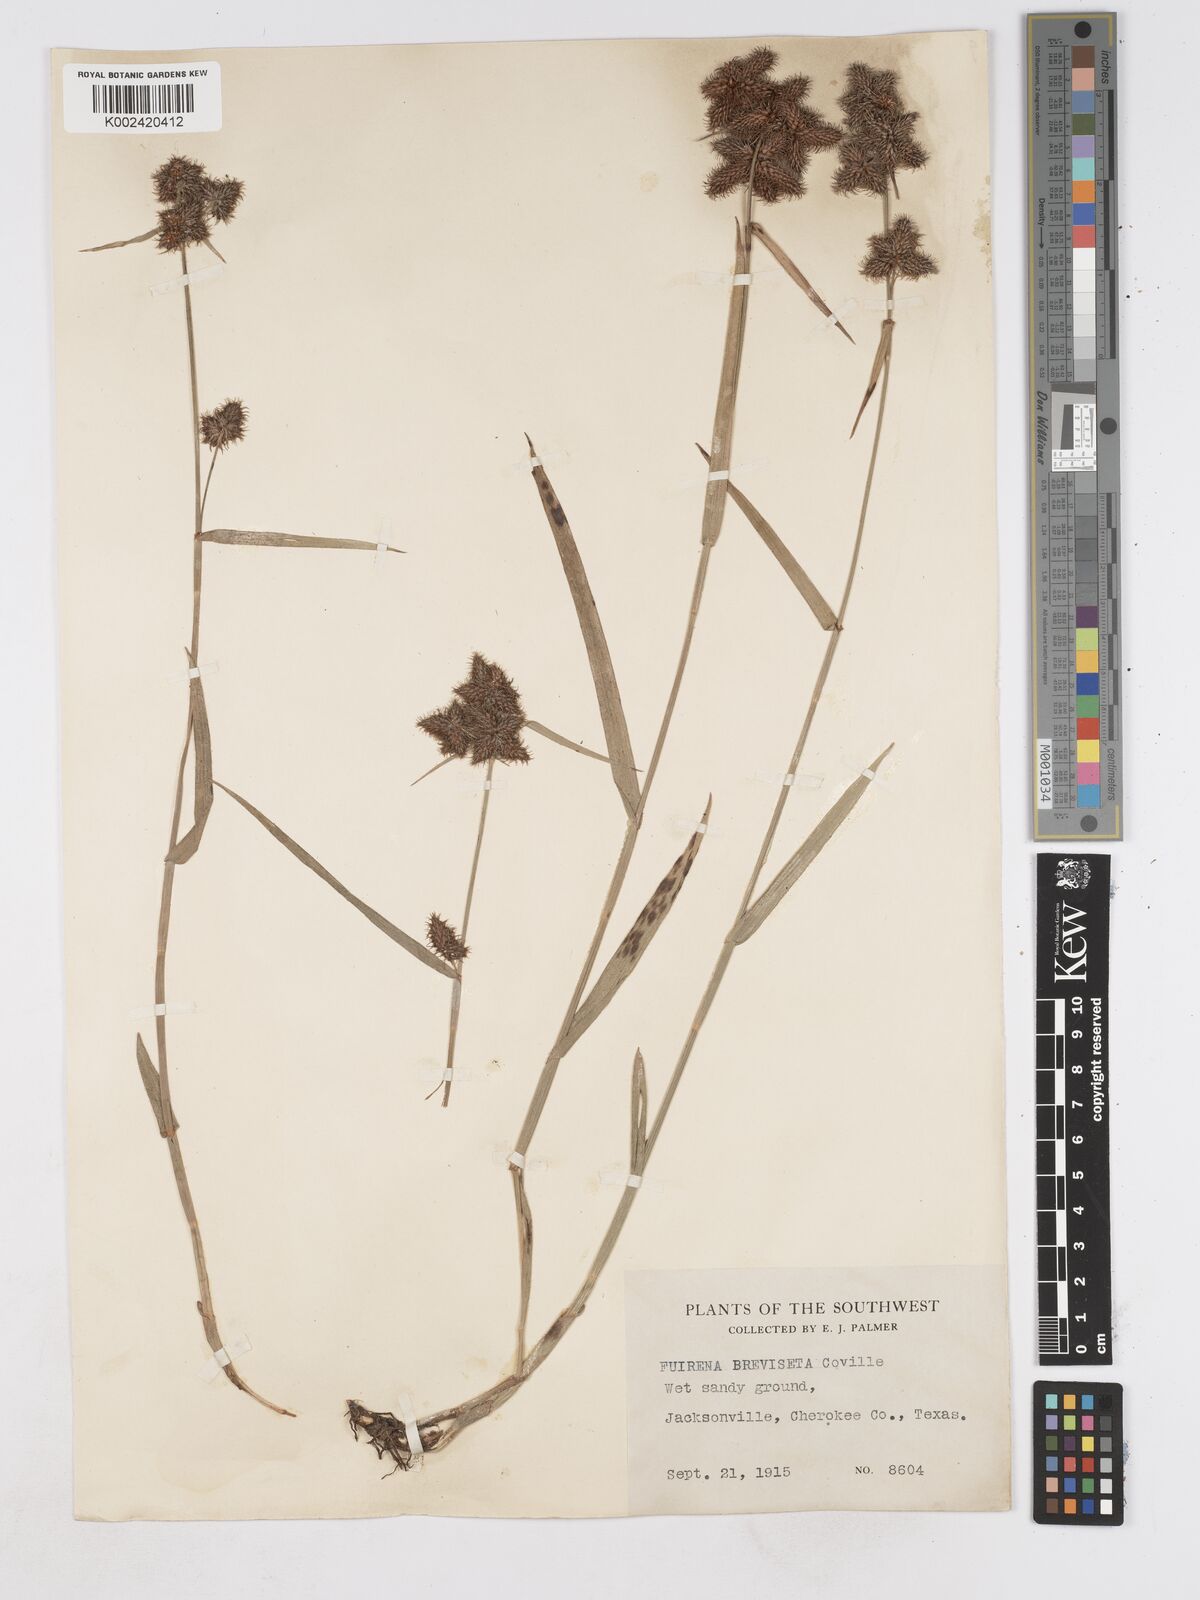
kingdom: Plantae
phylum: Tracheophyta
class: Liliopsida
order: Poales
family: Cyperaceae
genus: Fuirena
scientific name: Fuirena breviseta
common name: Saltmarsh umbrella sedge
